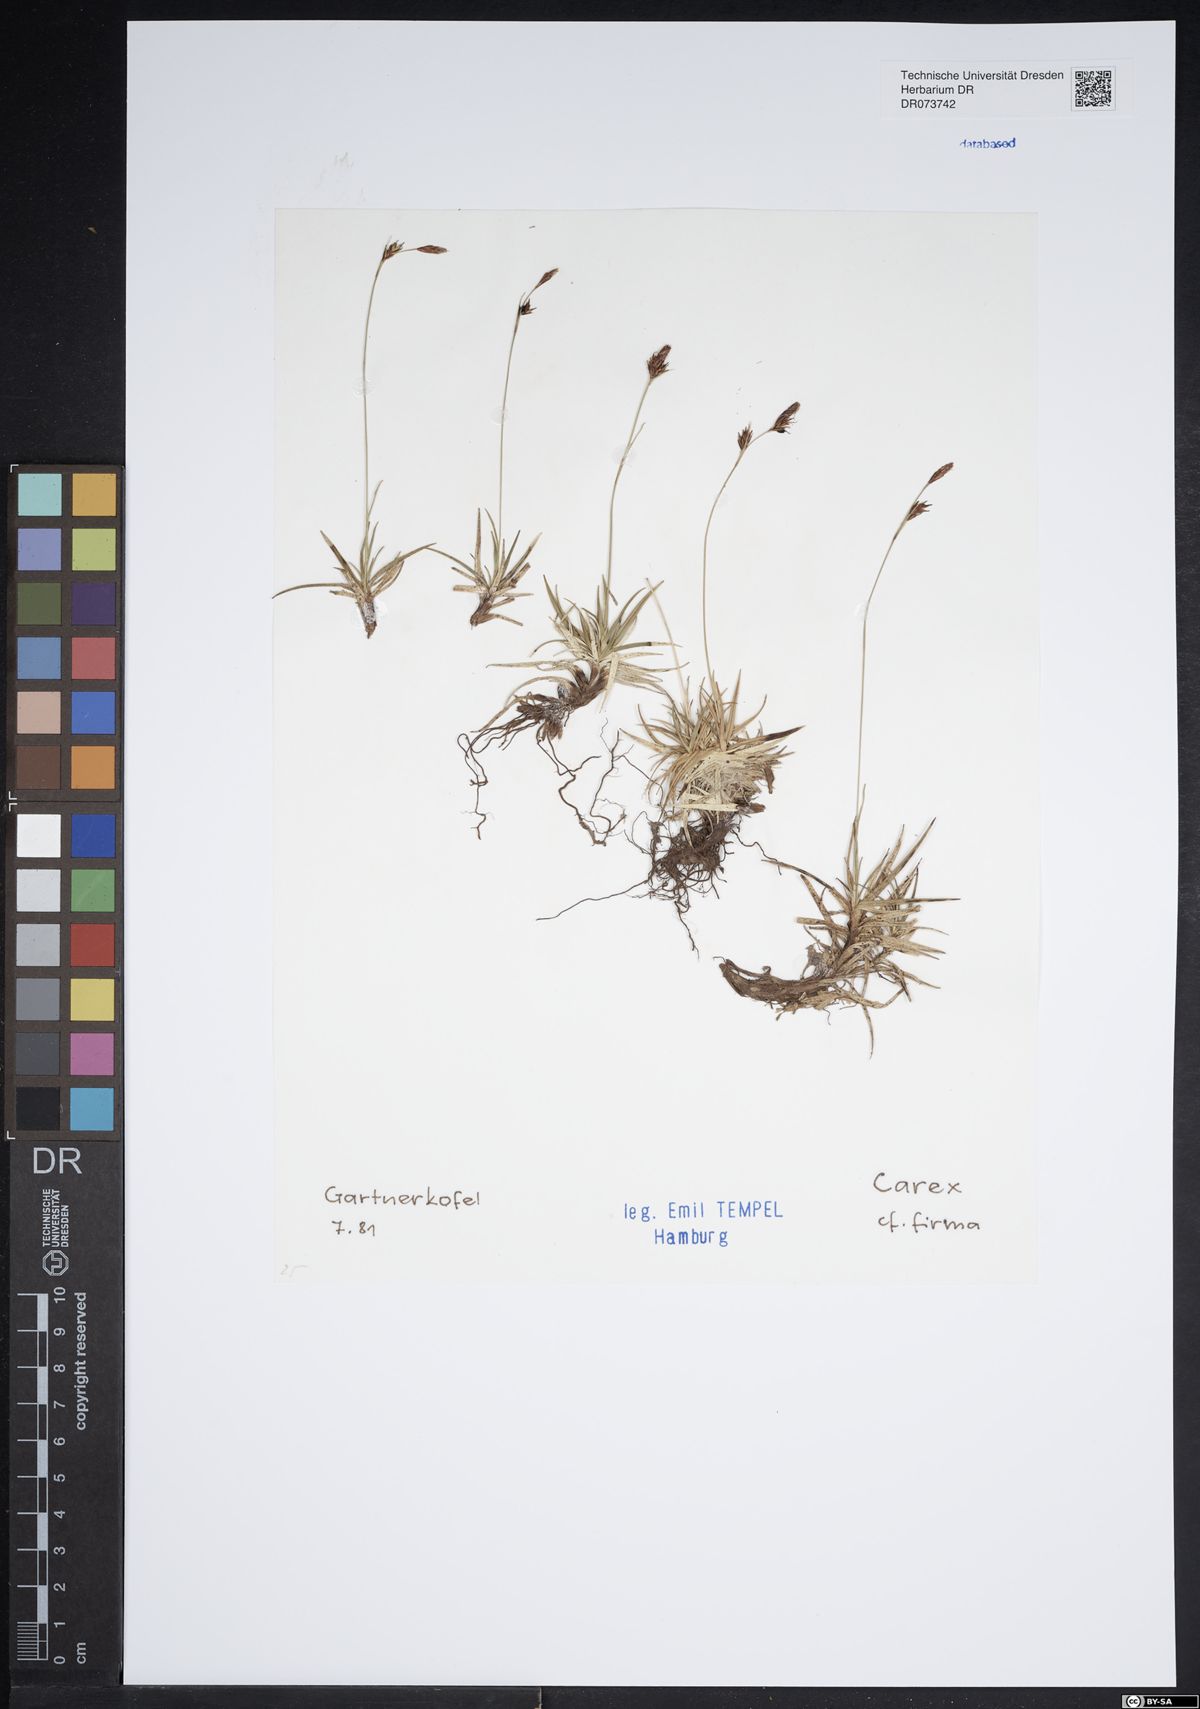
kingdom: Plantae
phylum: Tracheophyta
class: Liliopsida
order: Poales
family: Cyperaceae
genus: Carex
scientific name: Carex firma
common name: Dwarf pillow sedge
